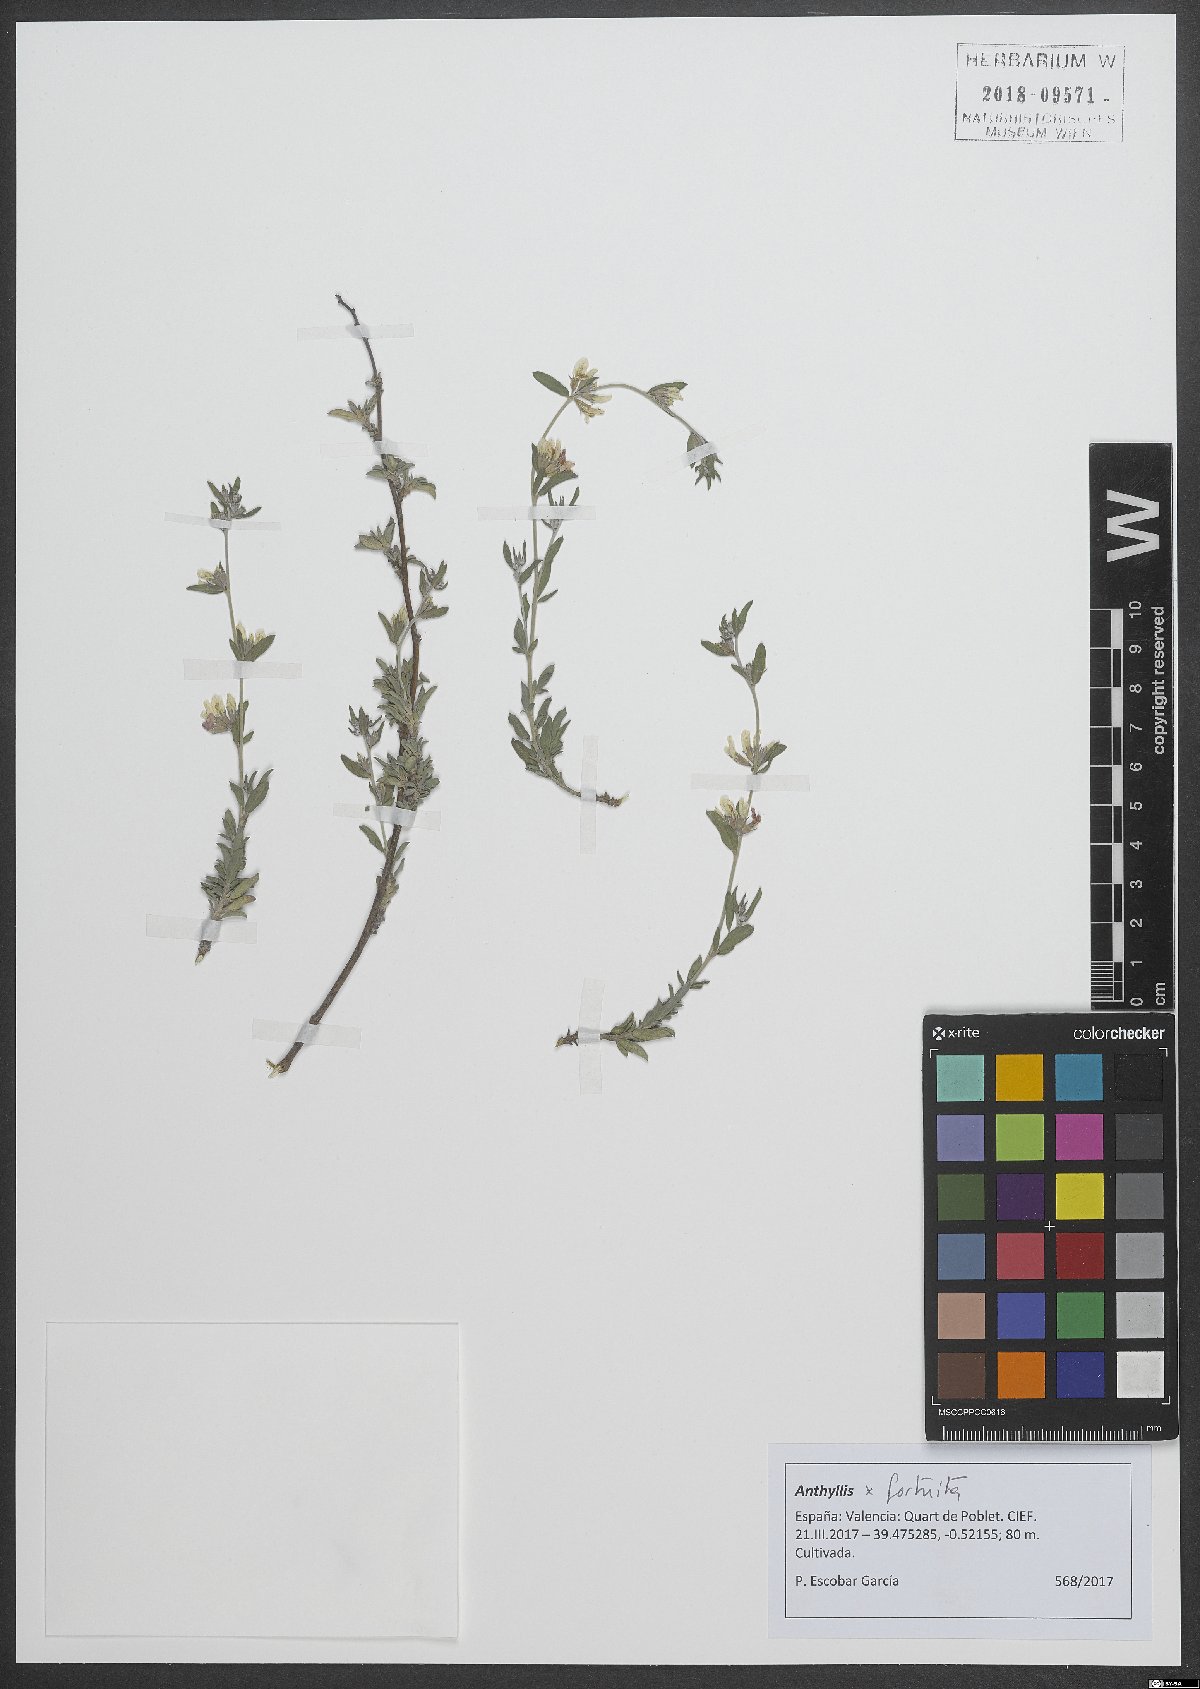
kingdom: Plantae
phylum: Tracheophyta
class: Magnoliopsida
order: Fabales
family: Fabaceae
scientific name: Fabaceae
